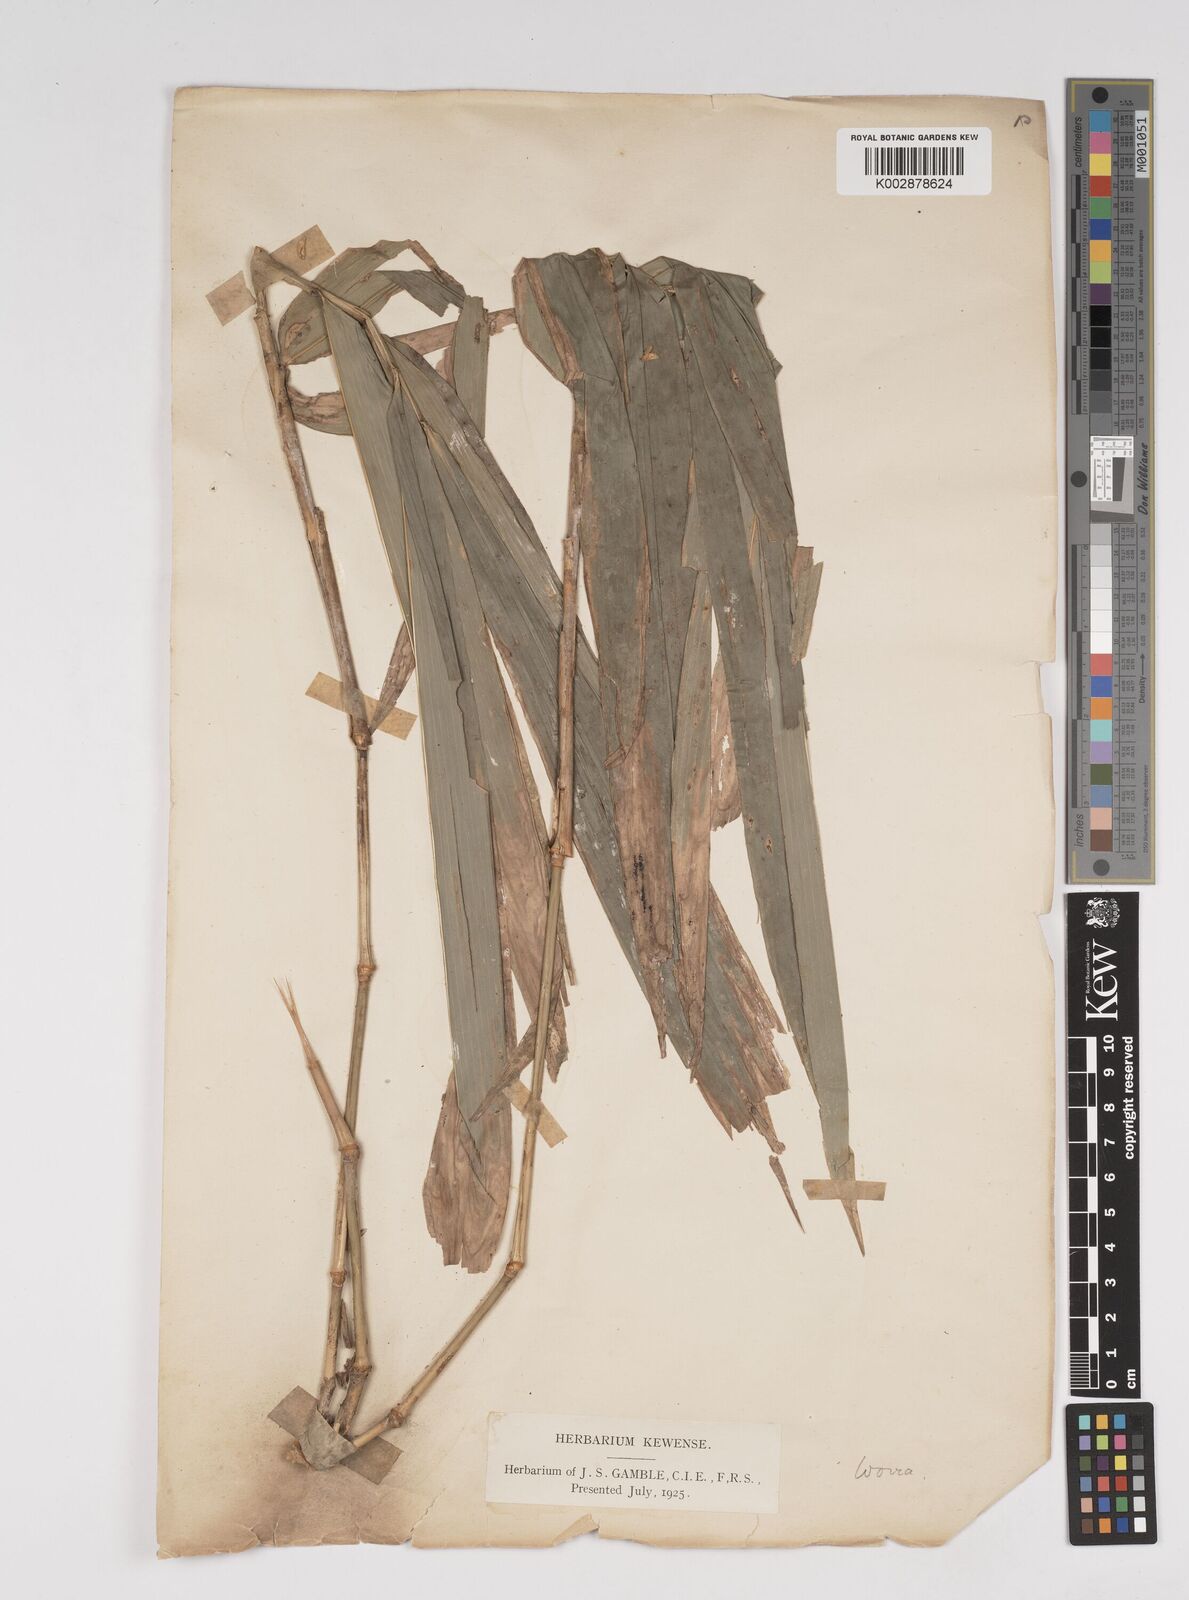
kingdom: Plantae
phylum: Tracheophyta
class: Liliopsida
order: Poales
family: Poaceae
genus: Dendrocalamus
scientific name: Dendrocalamus giganteus
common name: Giant bamboo
